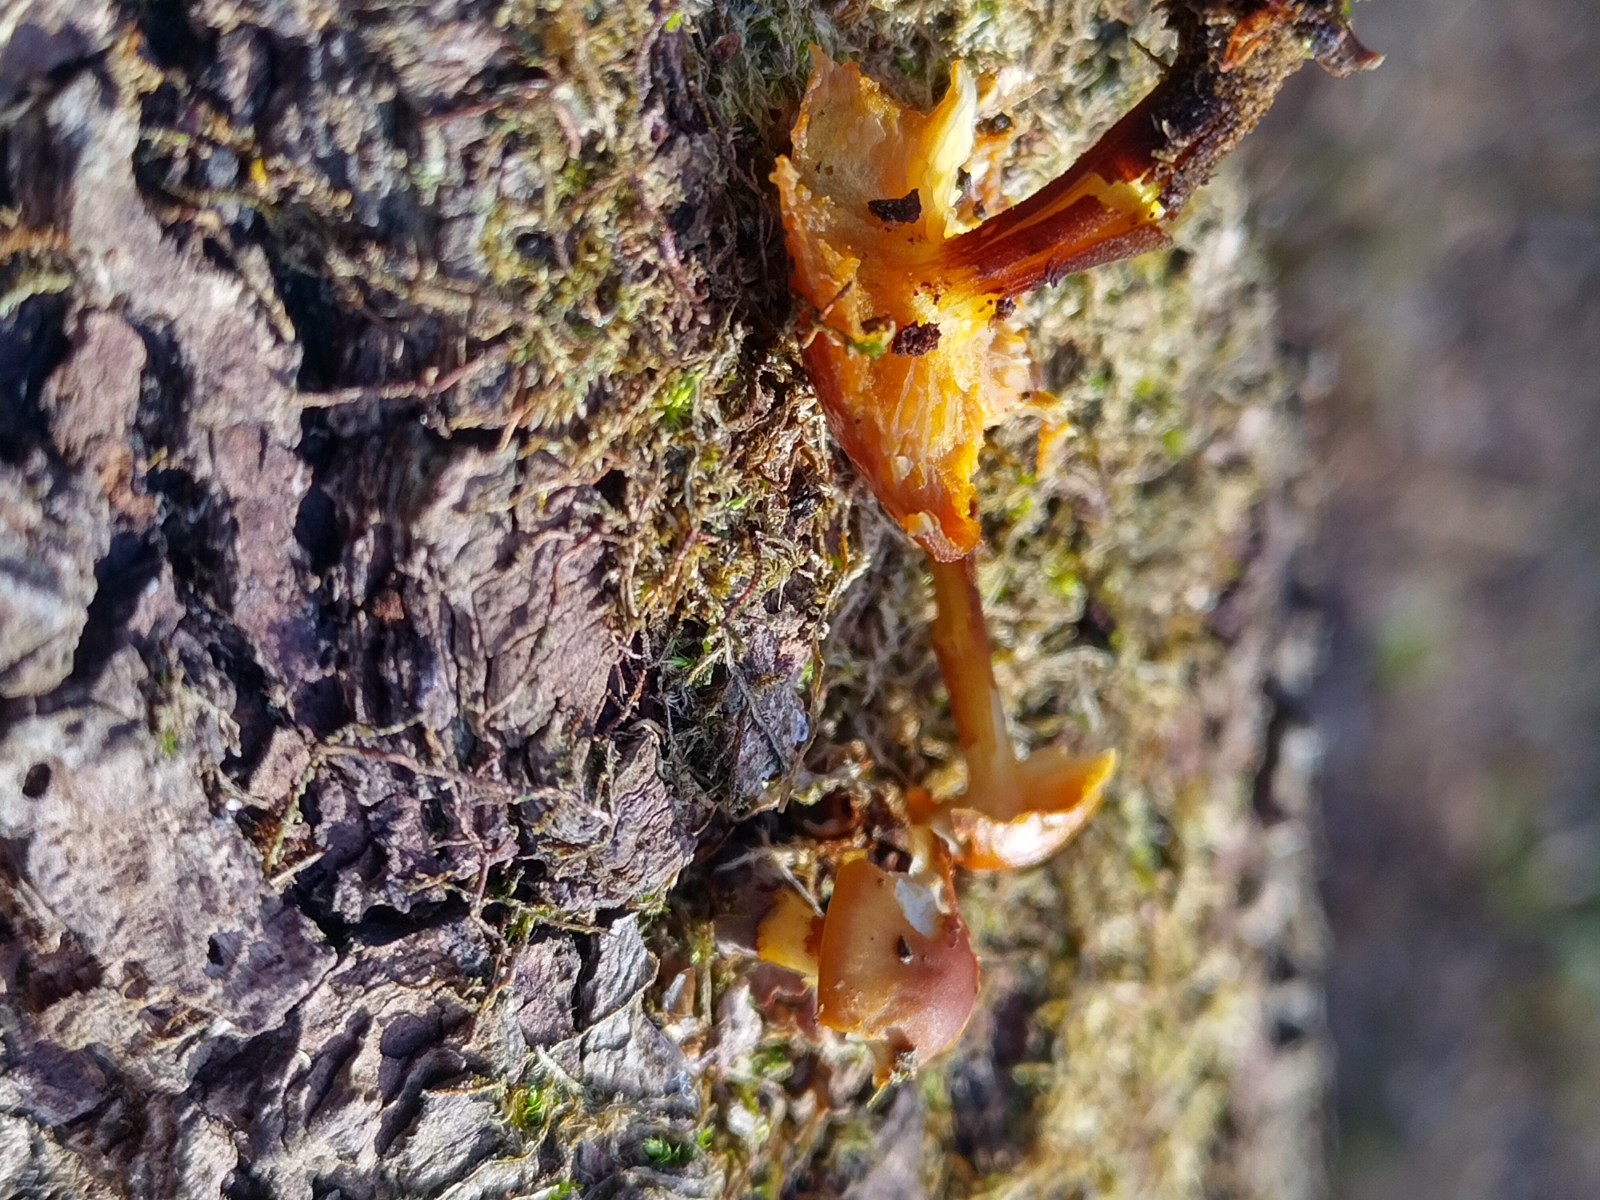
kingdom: Fungi
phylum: Basidiomycota
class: Agaricomycetes
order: Agaricales
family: Physalacriaceae
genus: Flammulina
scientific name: Flammulina velutipes
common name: gul fløjlsfod
